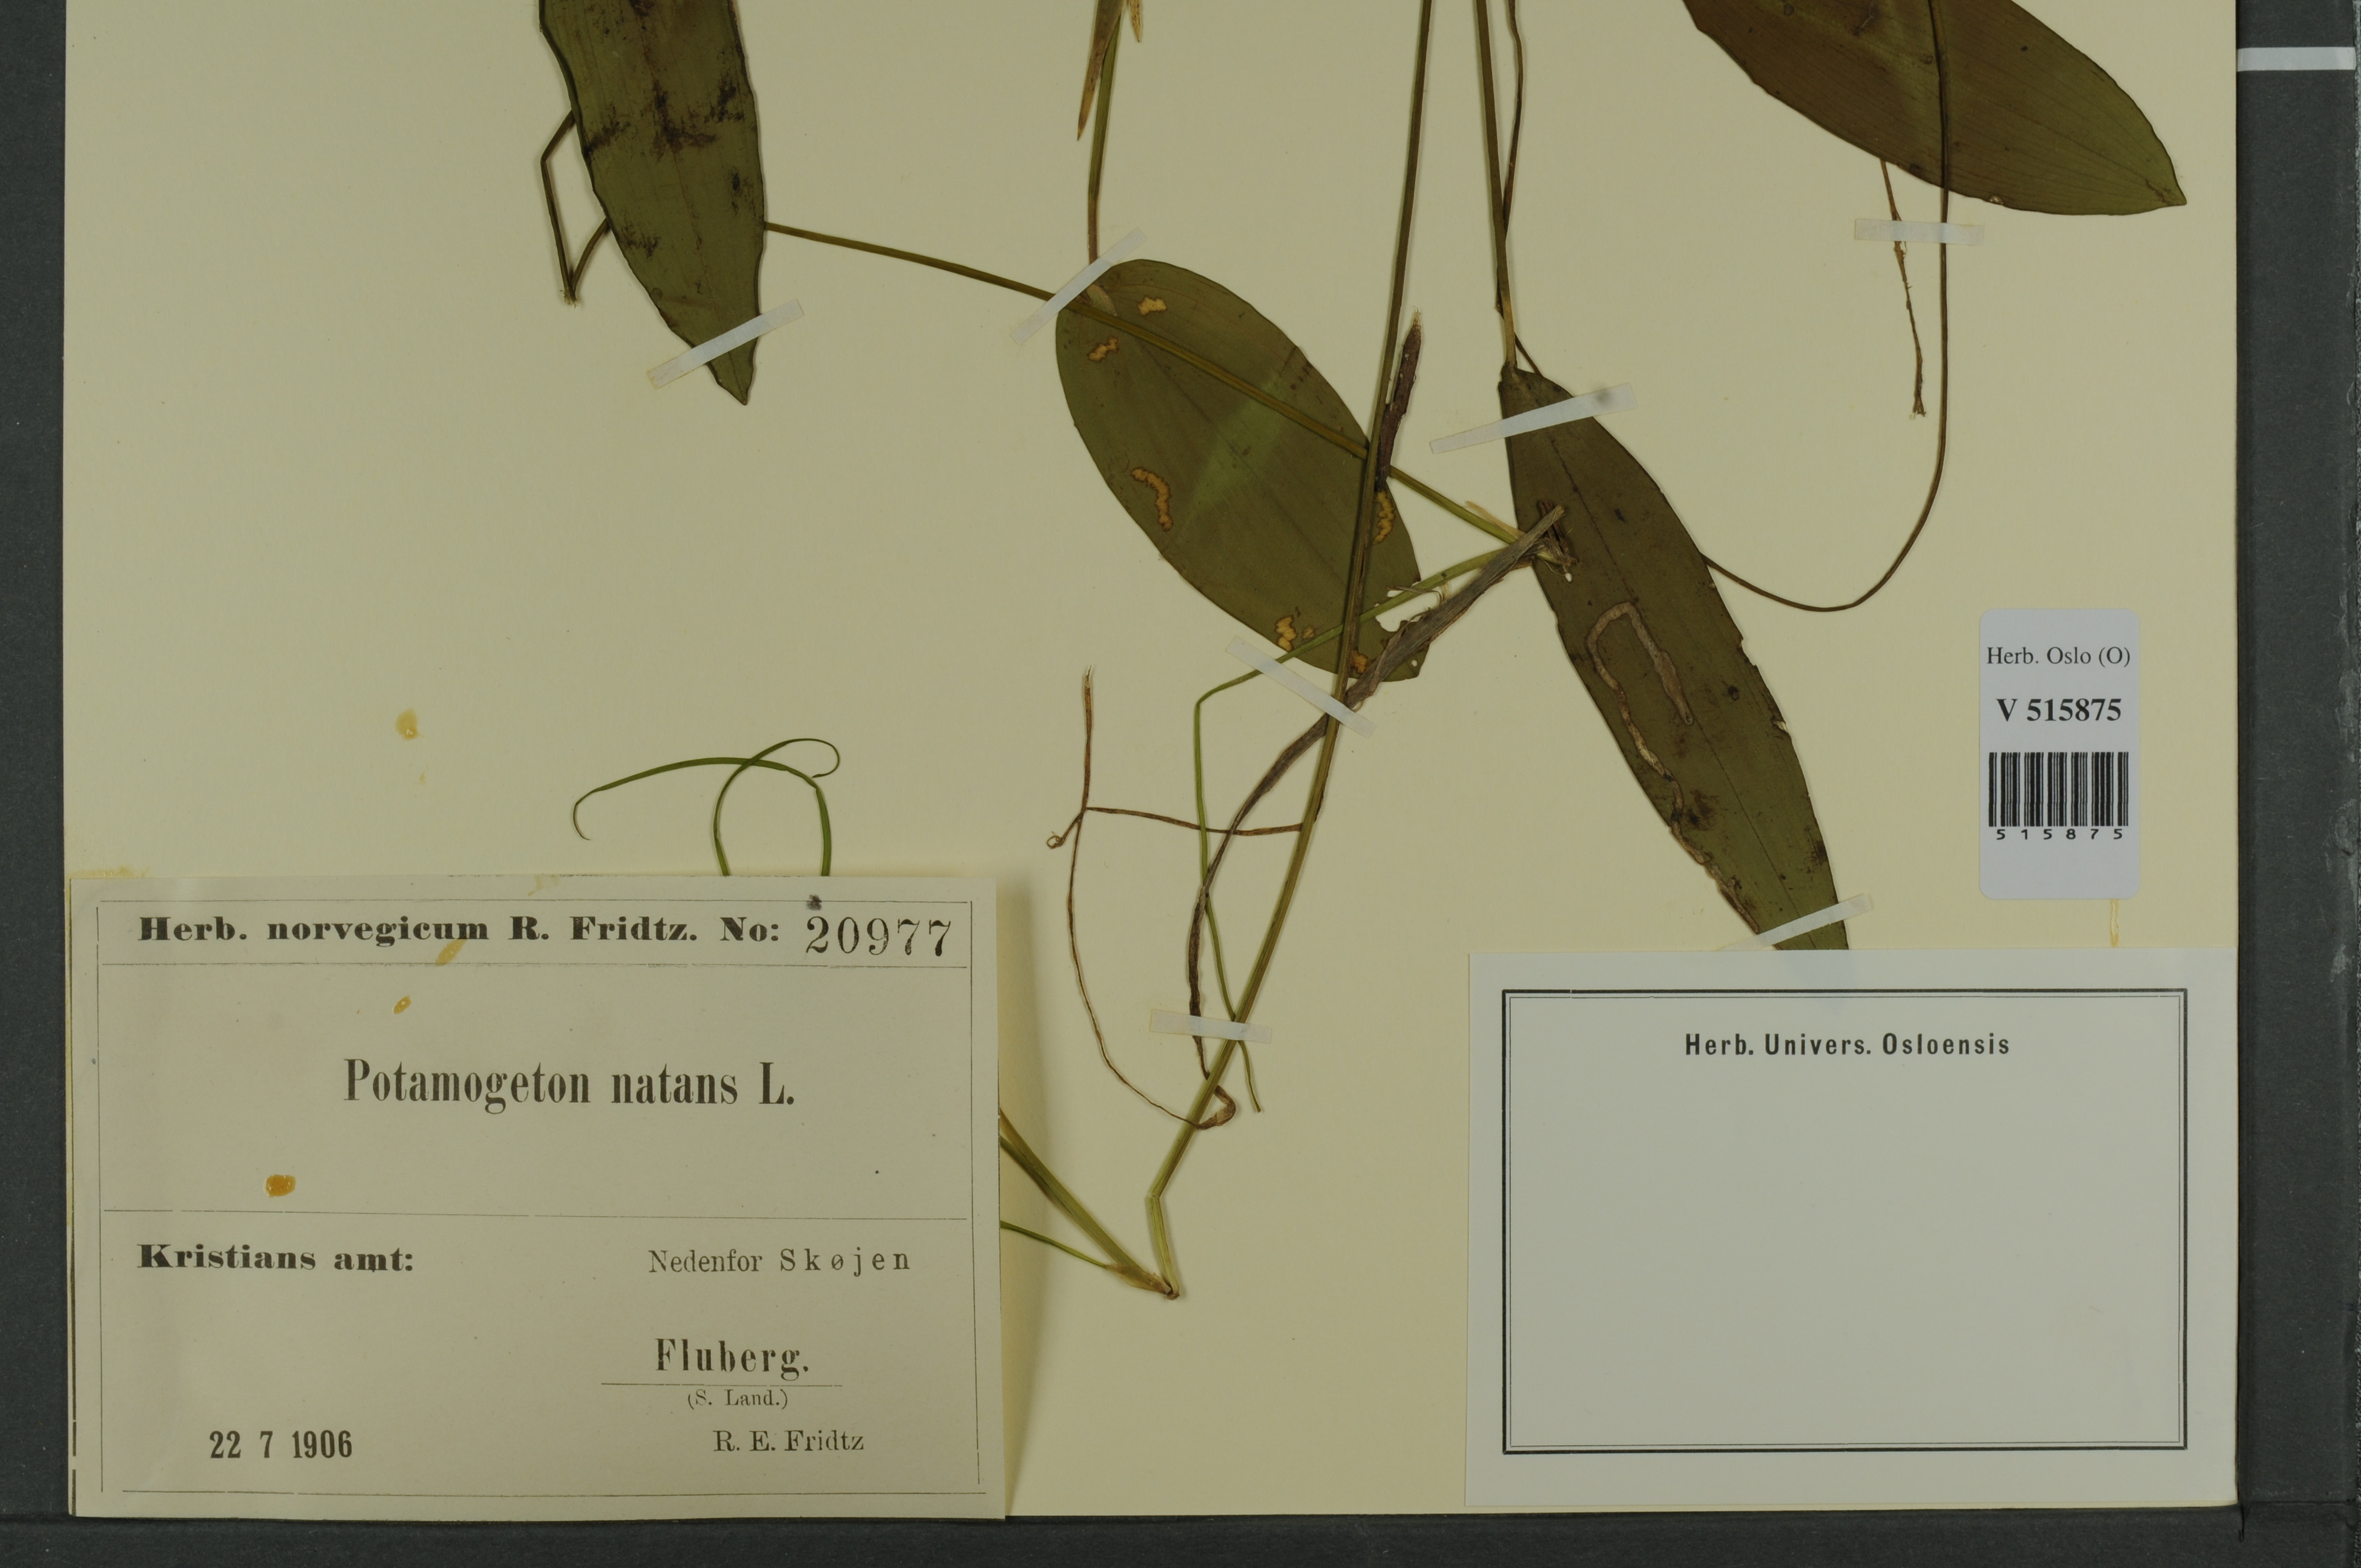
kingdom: Plantae
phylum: Tracheophyta
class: Liliopsida
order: Alismatales
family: Potamogetonaceae
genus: Potamogeton
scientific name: Potamogeton natans
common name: Broad-leaved pondweed
